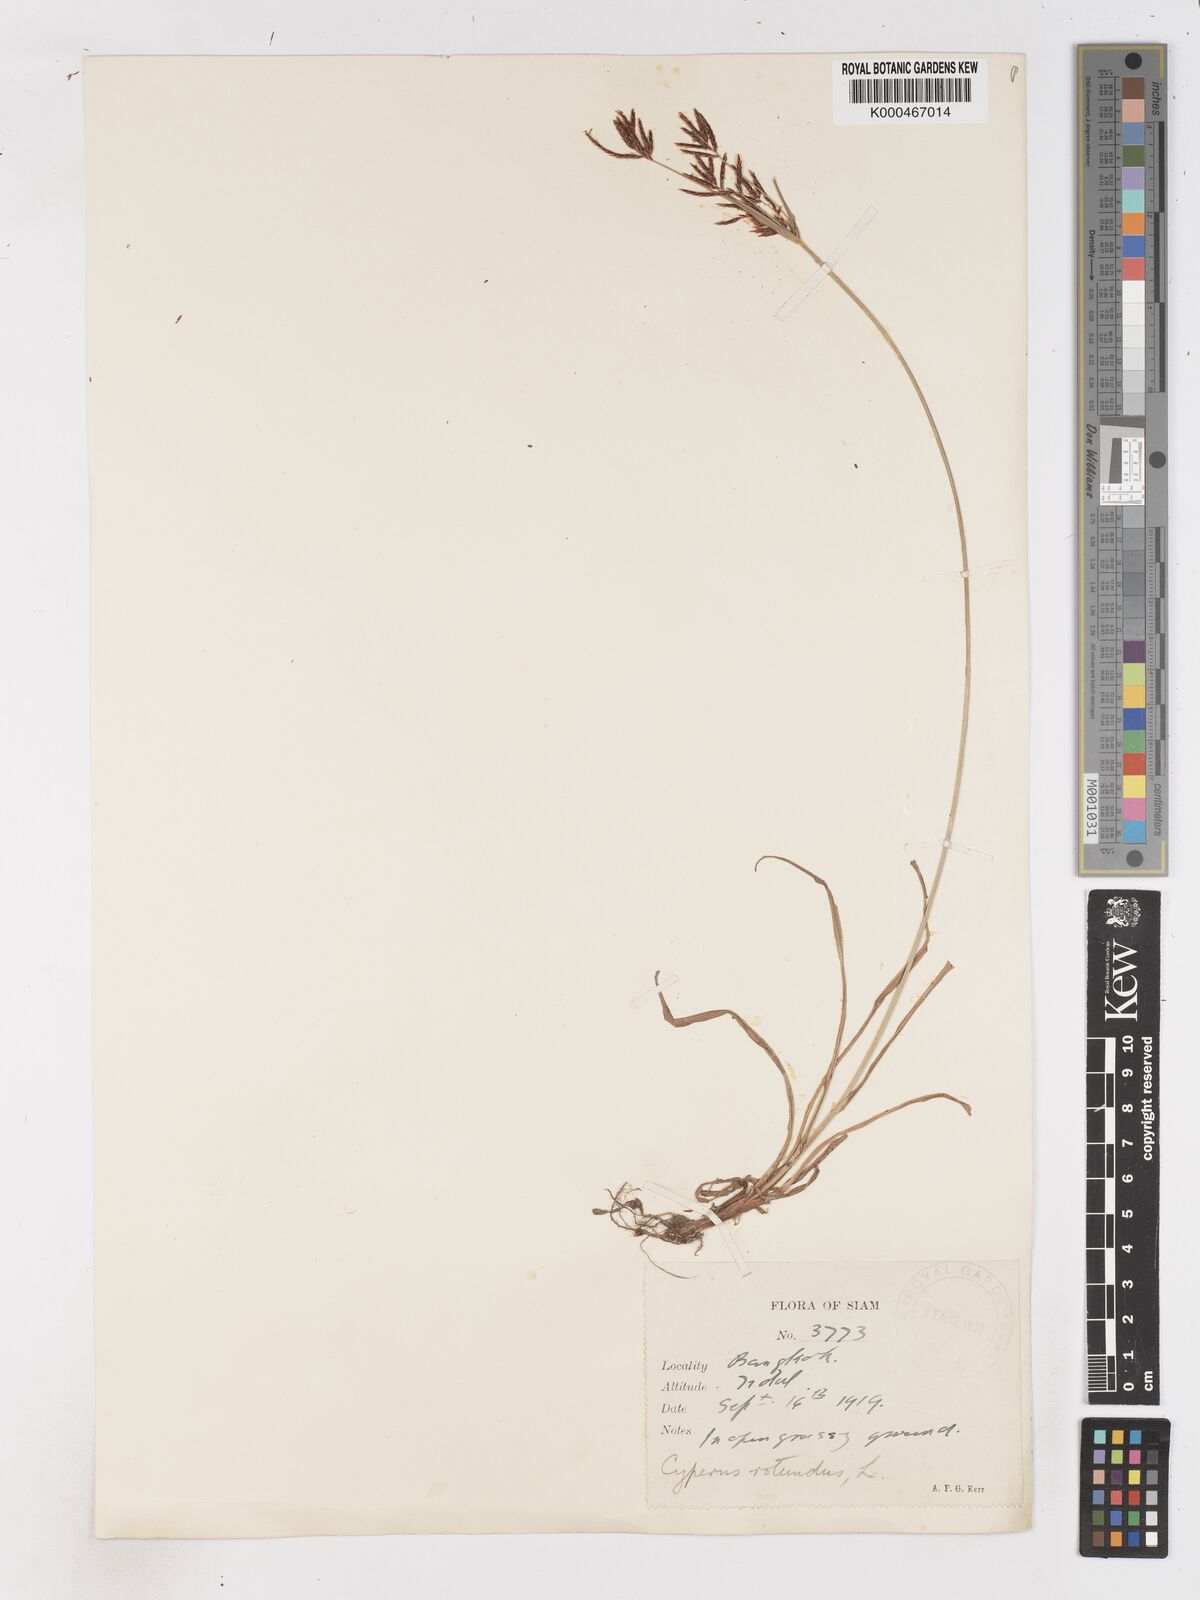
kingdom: Plantae
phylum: Tracheophyta
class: Liliopsida
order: Poales
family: Cyperaceae
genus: Cyperus
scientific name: Cyperus rotundus
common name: Nutgrass
